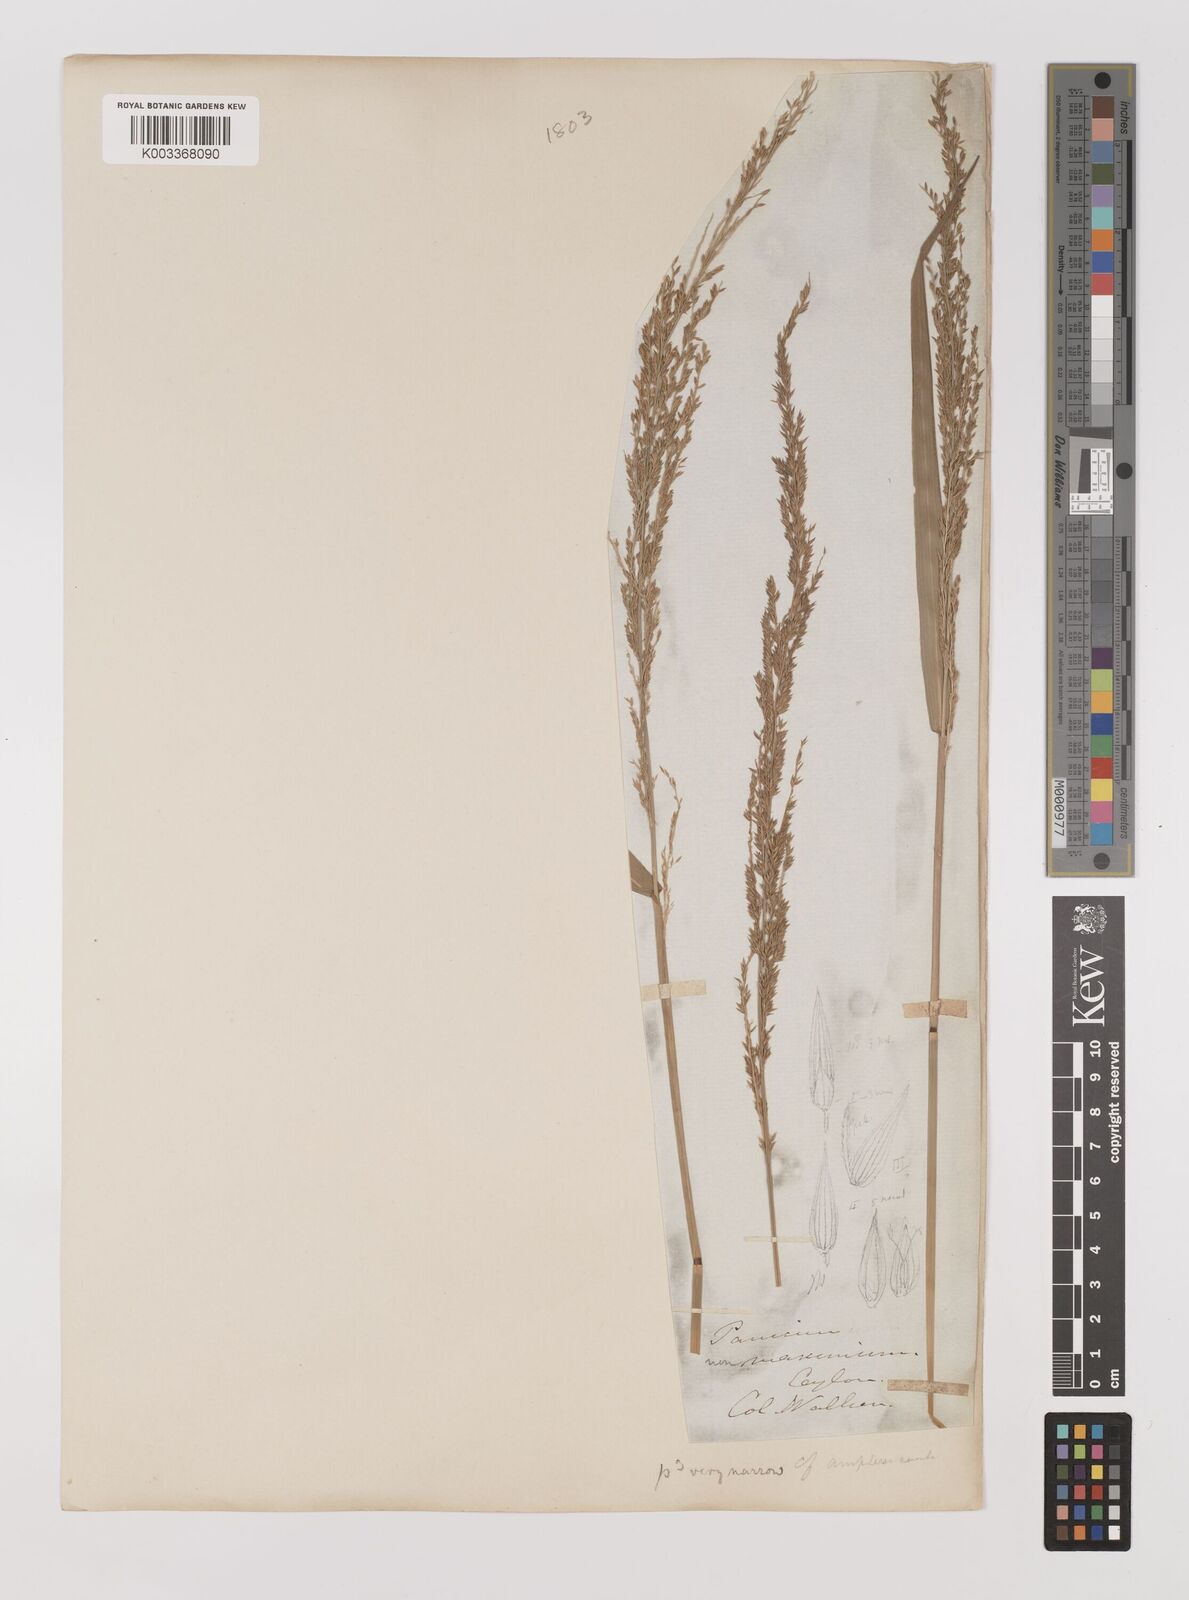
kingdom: Plantae
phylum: Tracheophyta
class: Liliopsida
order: Poales
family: Poaceae
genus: Hymenachne
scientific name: Hymenachne aurita
